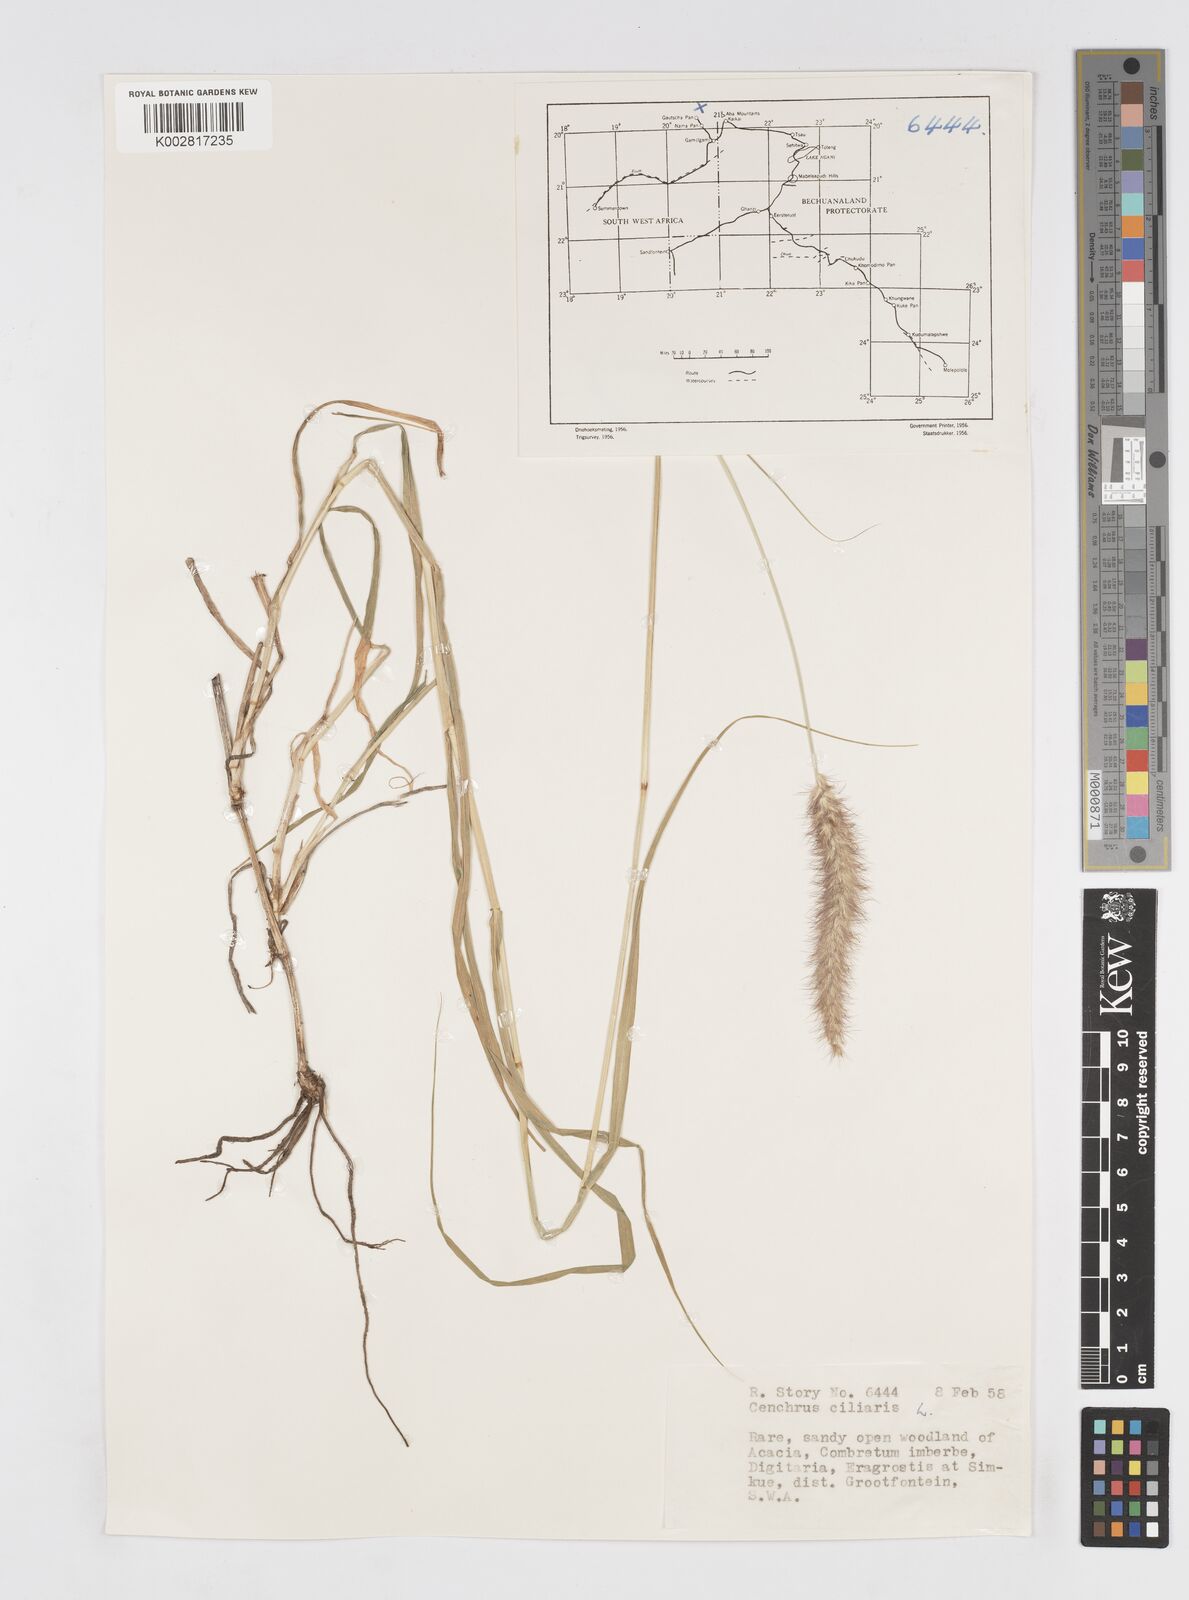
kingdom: Plantae
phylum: Tracheophyta
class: Liliopsida
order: Poales
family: Poaceae
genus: Cenchrus
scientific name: Cenchrus ciliaris
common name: Buffelgrass
